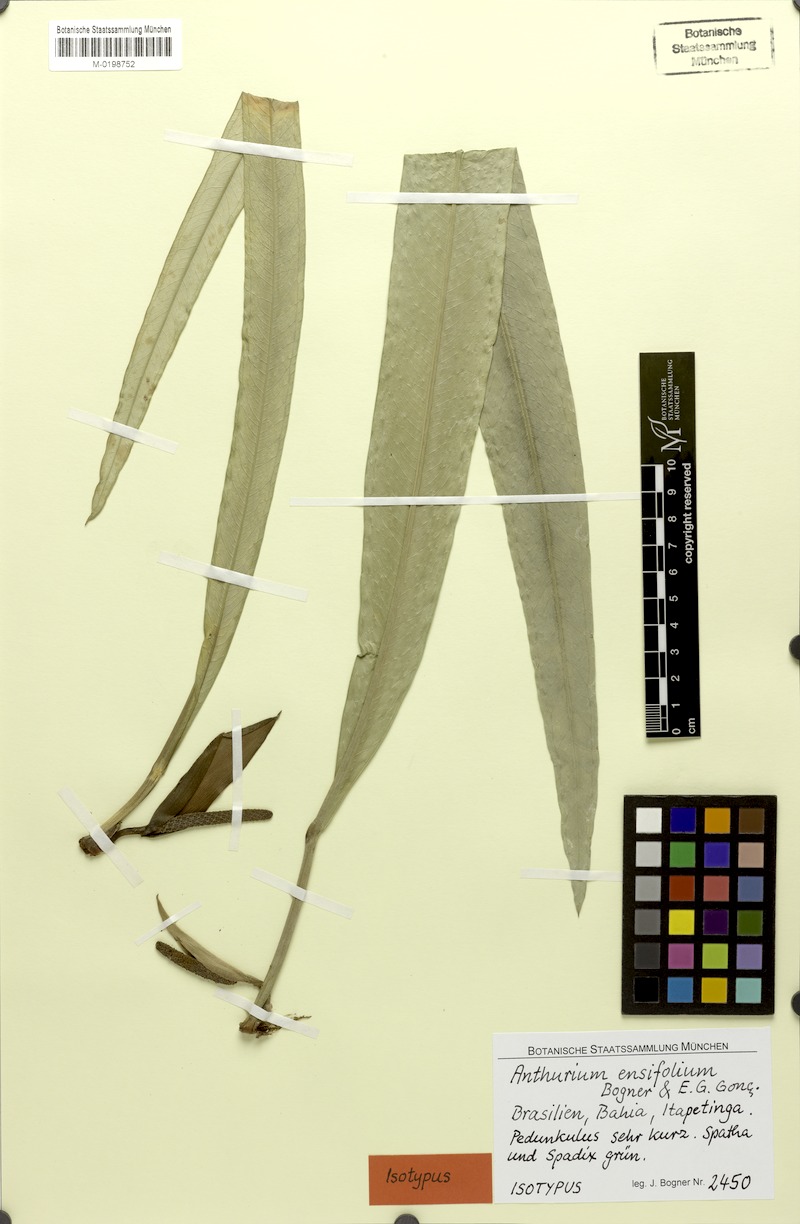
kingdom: Plantae
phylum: Tracheophyta
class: Liliopsida
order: Alismatales
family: Araceae
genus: Anthurium
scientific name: Anthurium ensifolium
